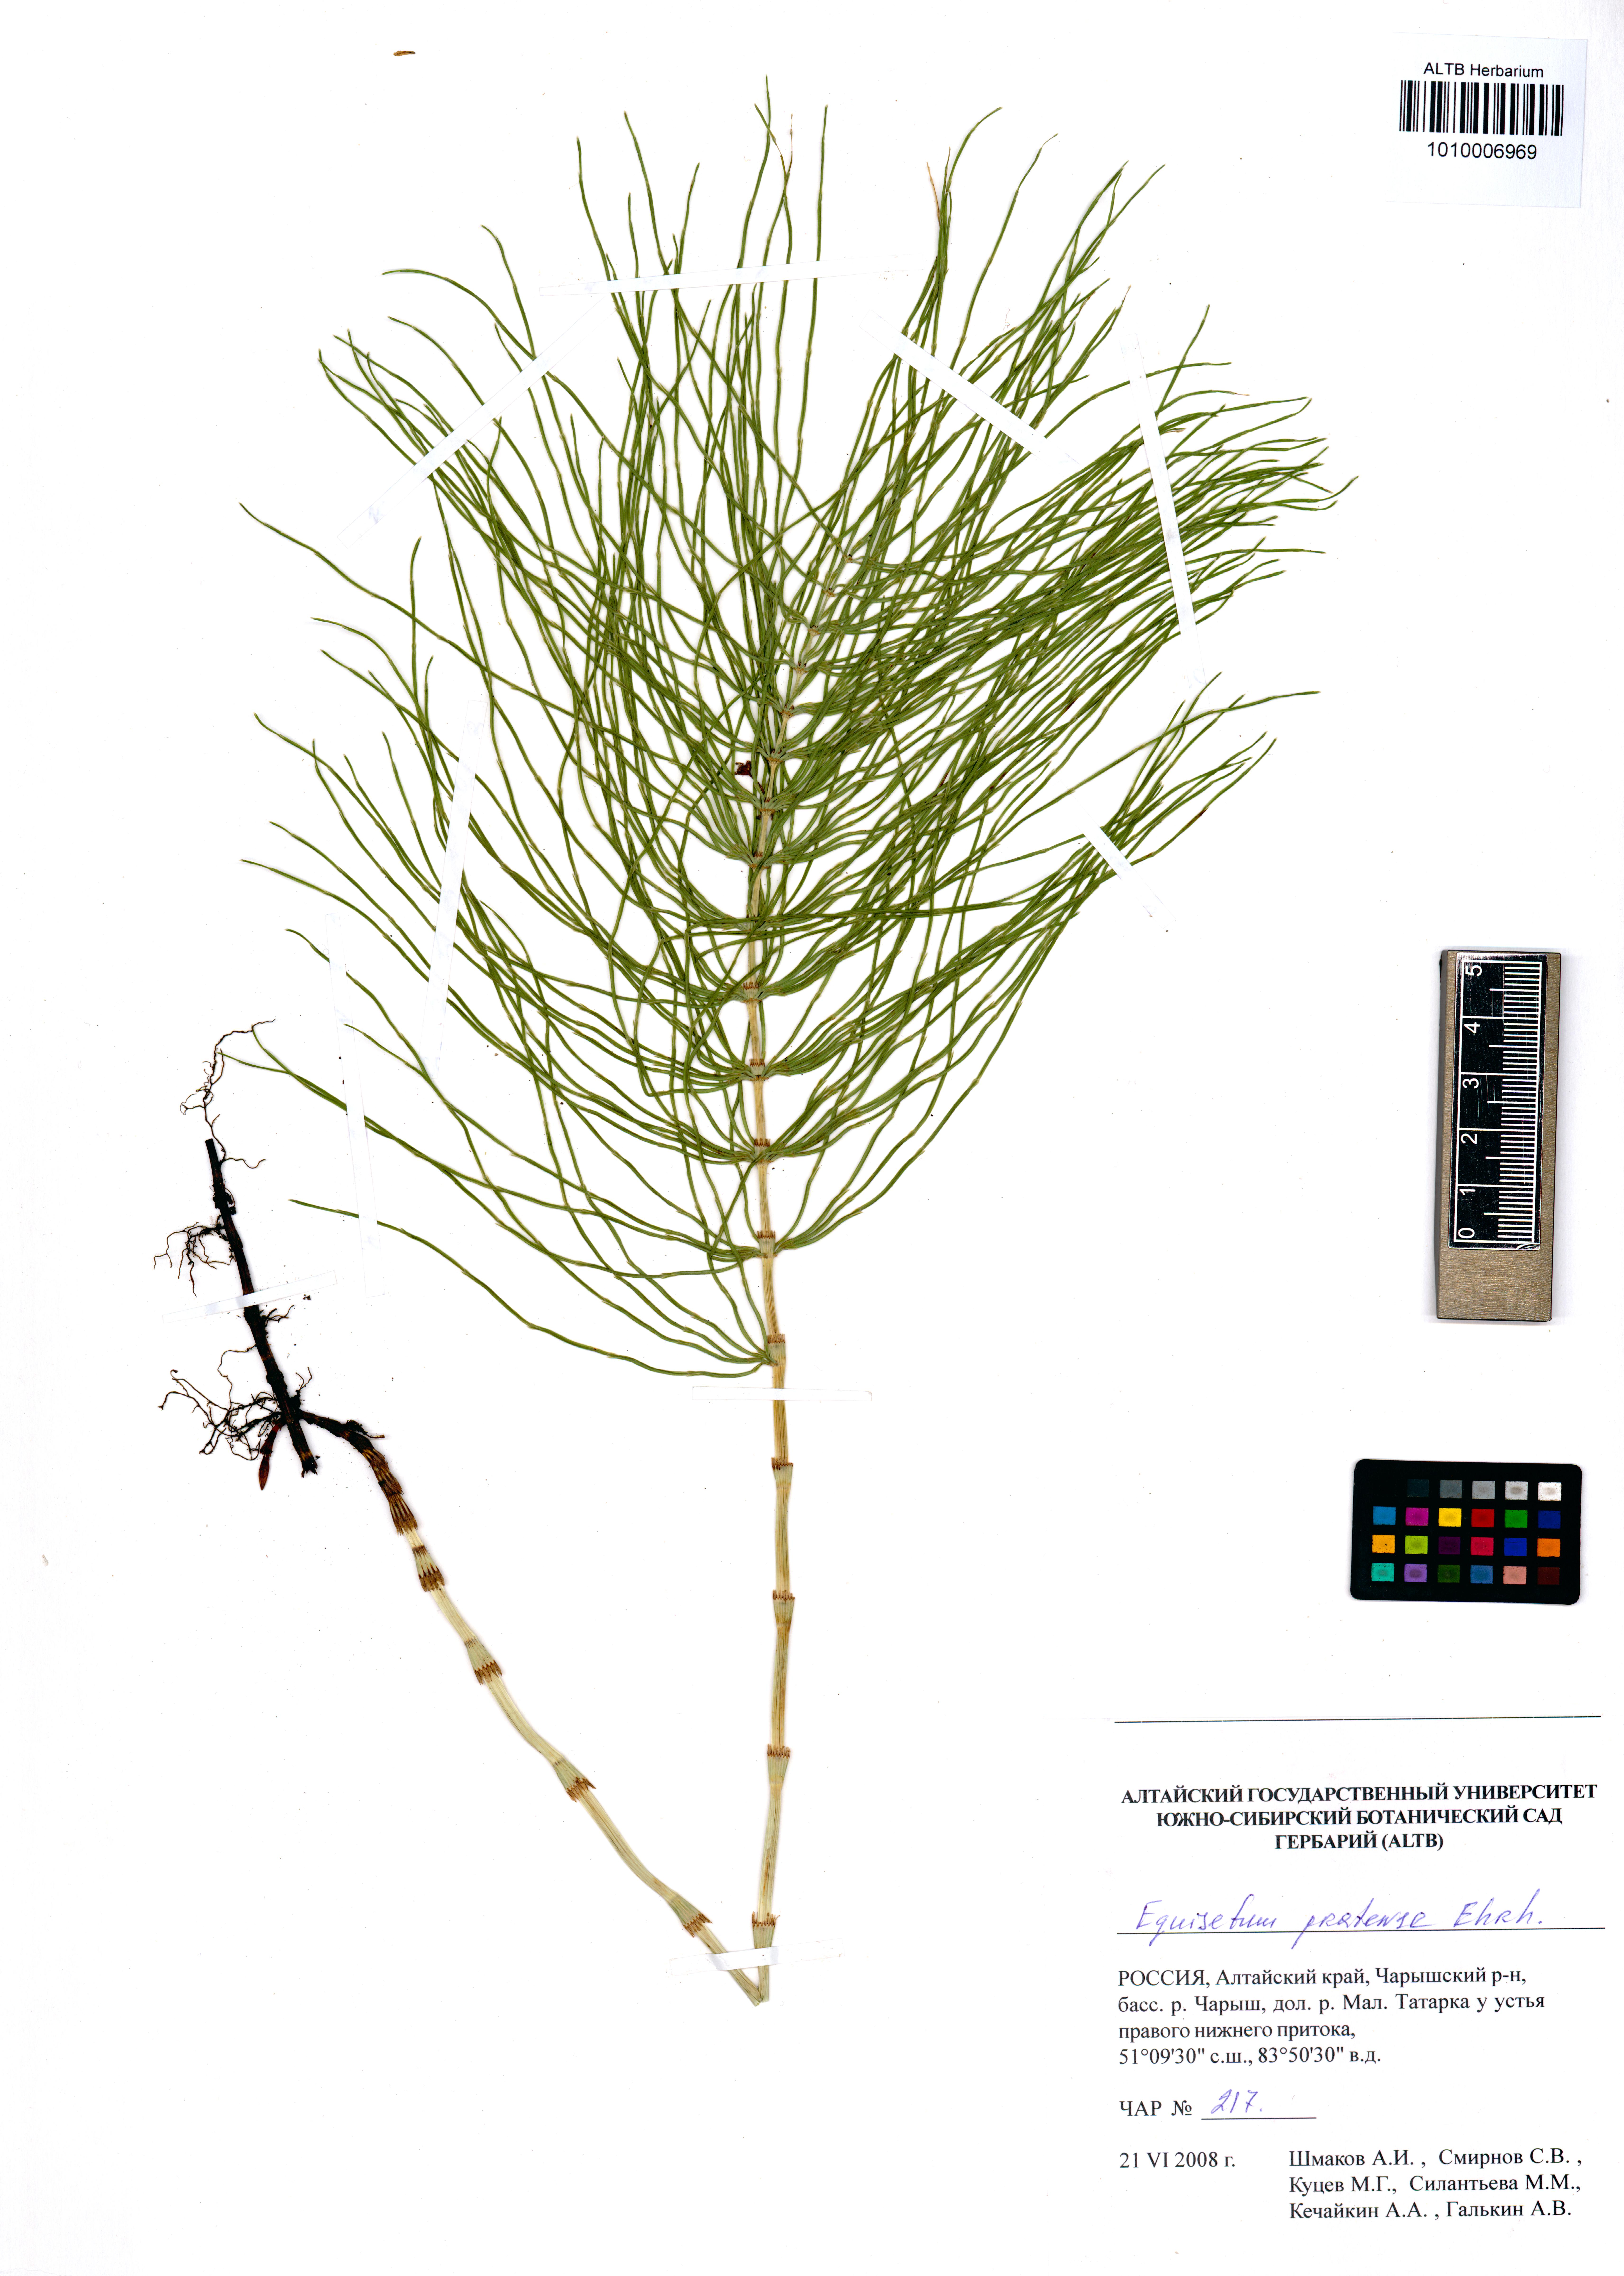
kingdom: Plantae
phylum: Tracheophyta
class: Polypodiopsida
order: Equisetales
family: Equisetaceae
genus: Equisetum
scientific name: Equisetum pratense
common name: Meadow horsetail
